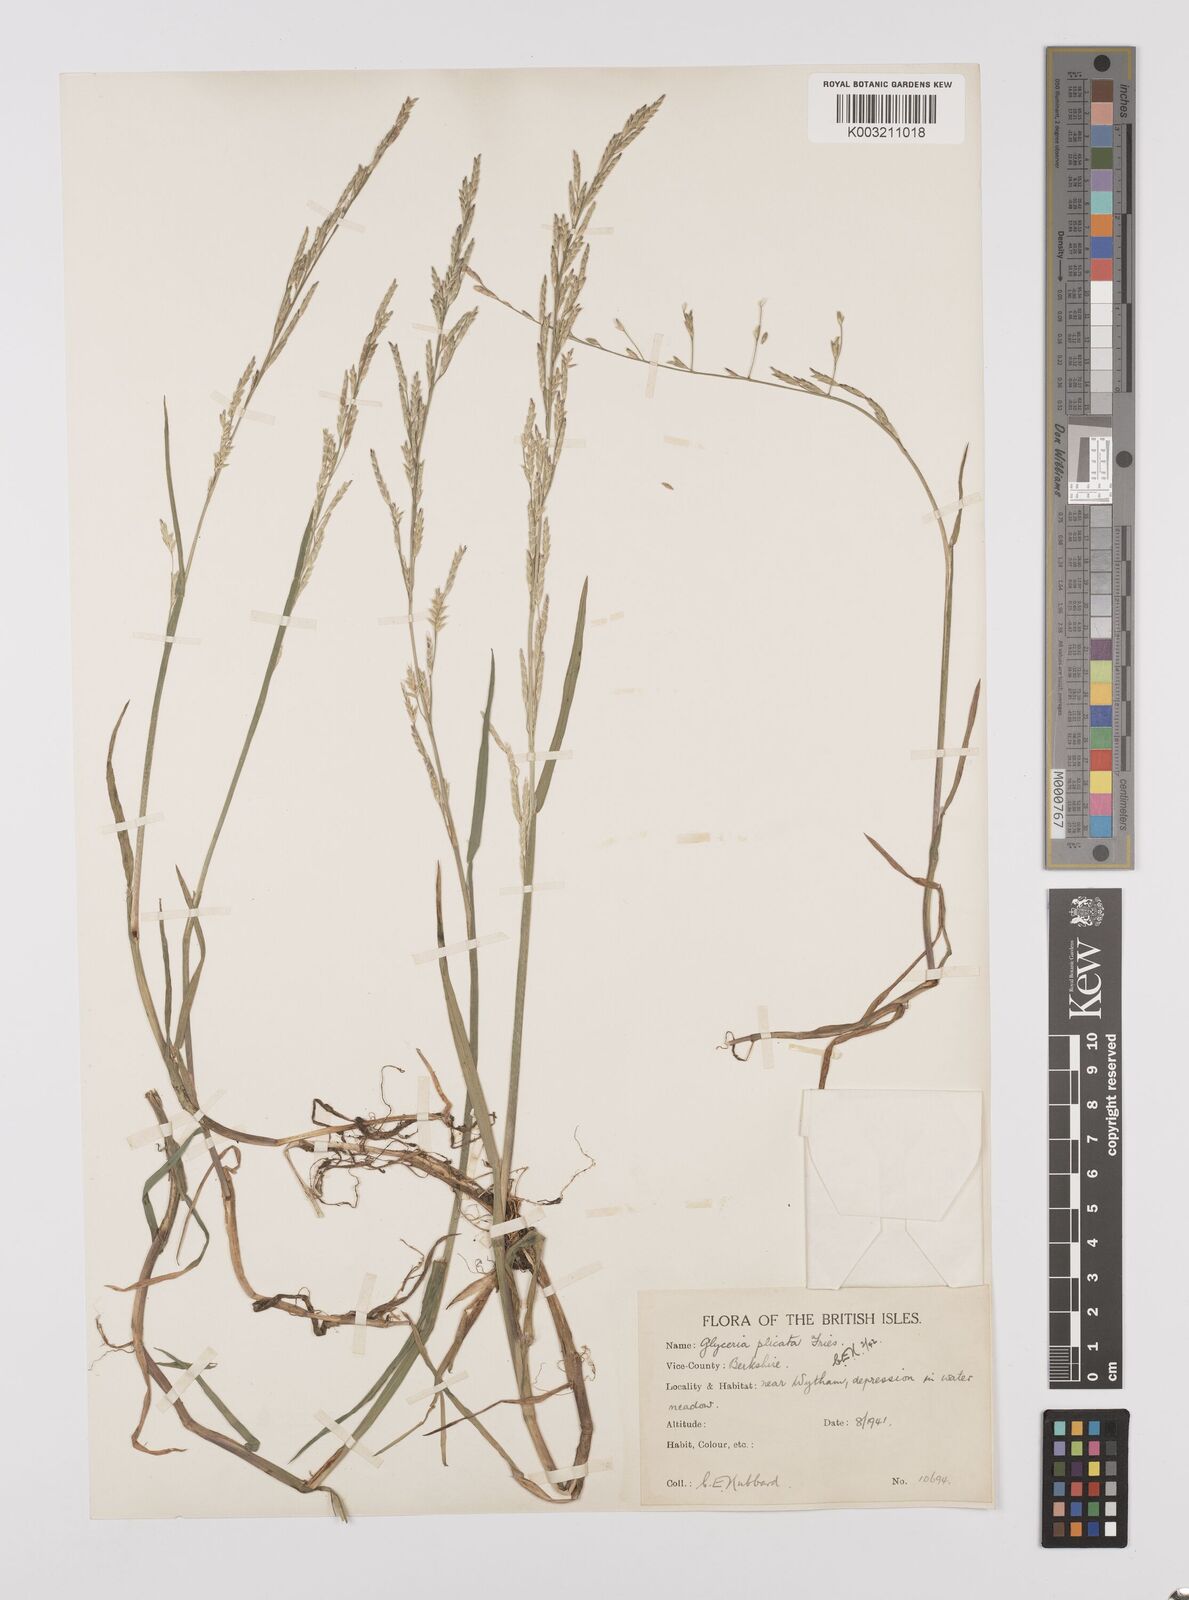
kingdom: Plantae
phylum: Tracheophyta
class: Liliopsida
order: Poales
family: Poaceae
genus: Glyceria
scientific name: Glyceria notata
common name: Plicate sweet-grass
